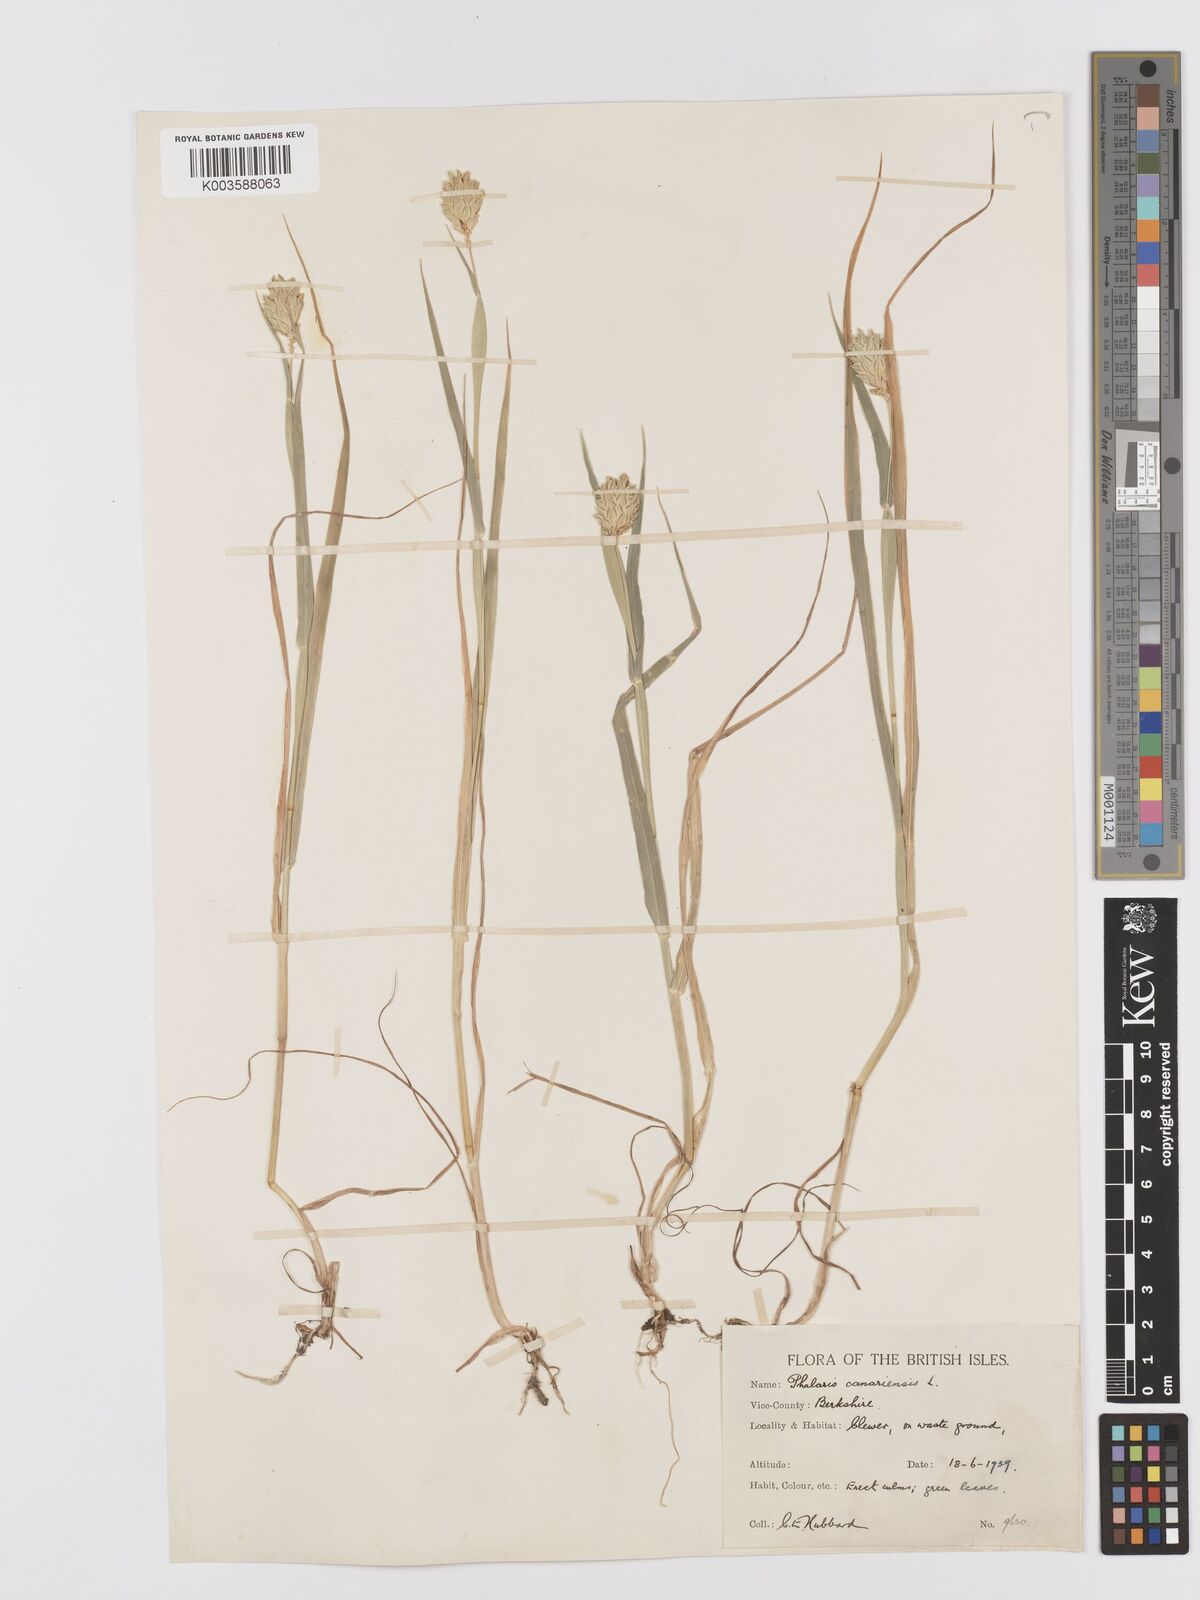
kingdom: Plantae
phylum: Tracheophyta
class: Liliopsida
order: Poales
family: Poaceae
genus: Phalaris
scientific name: Phalaris canariensis
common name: Annual canarygrass
